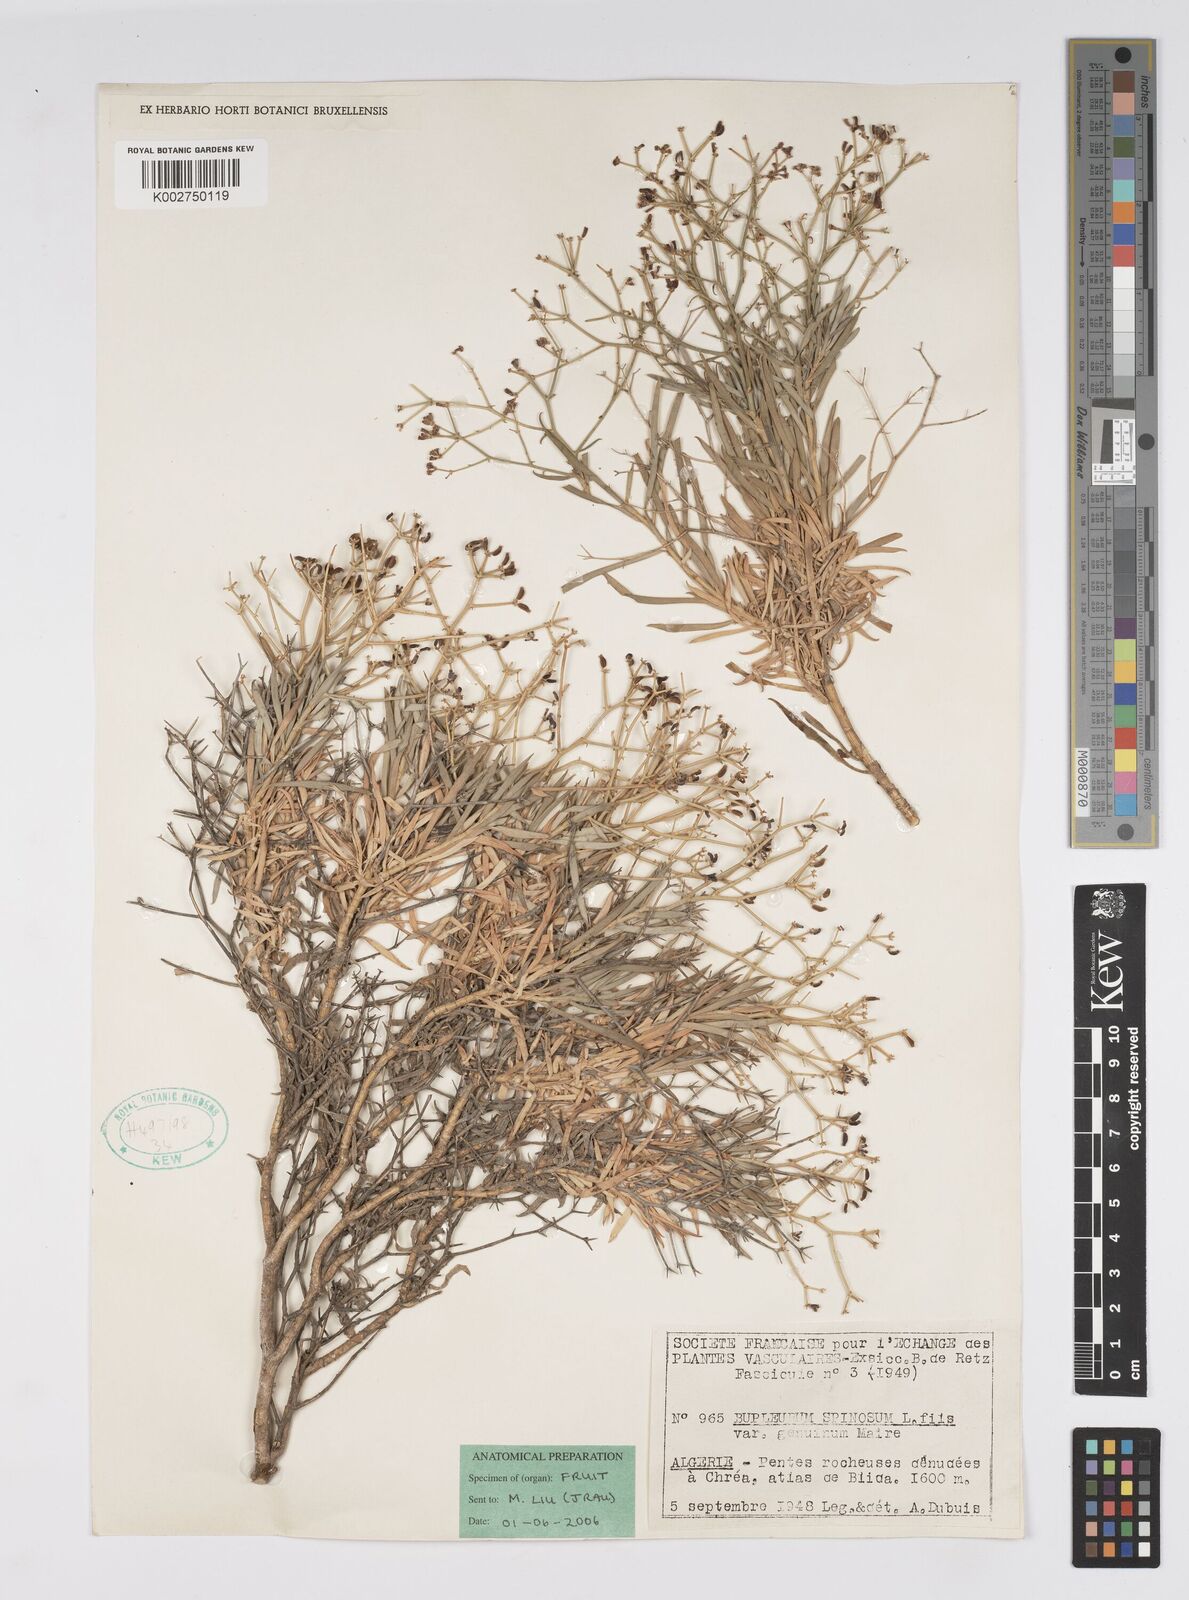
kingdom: Plantae
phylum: Tracheophyta
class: Magnoliopsida
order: Apiales
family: Apiaceae
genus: Bupleurum
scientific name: Bupleurum fruticescens
